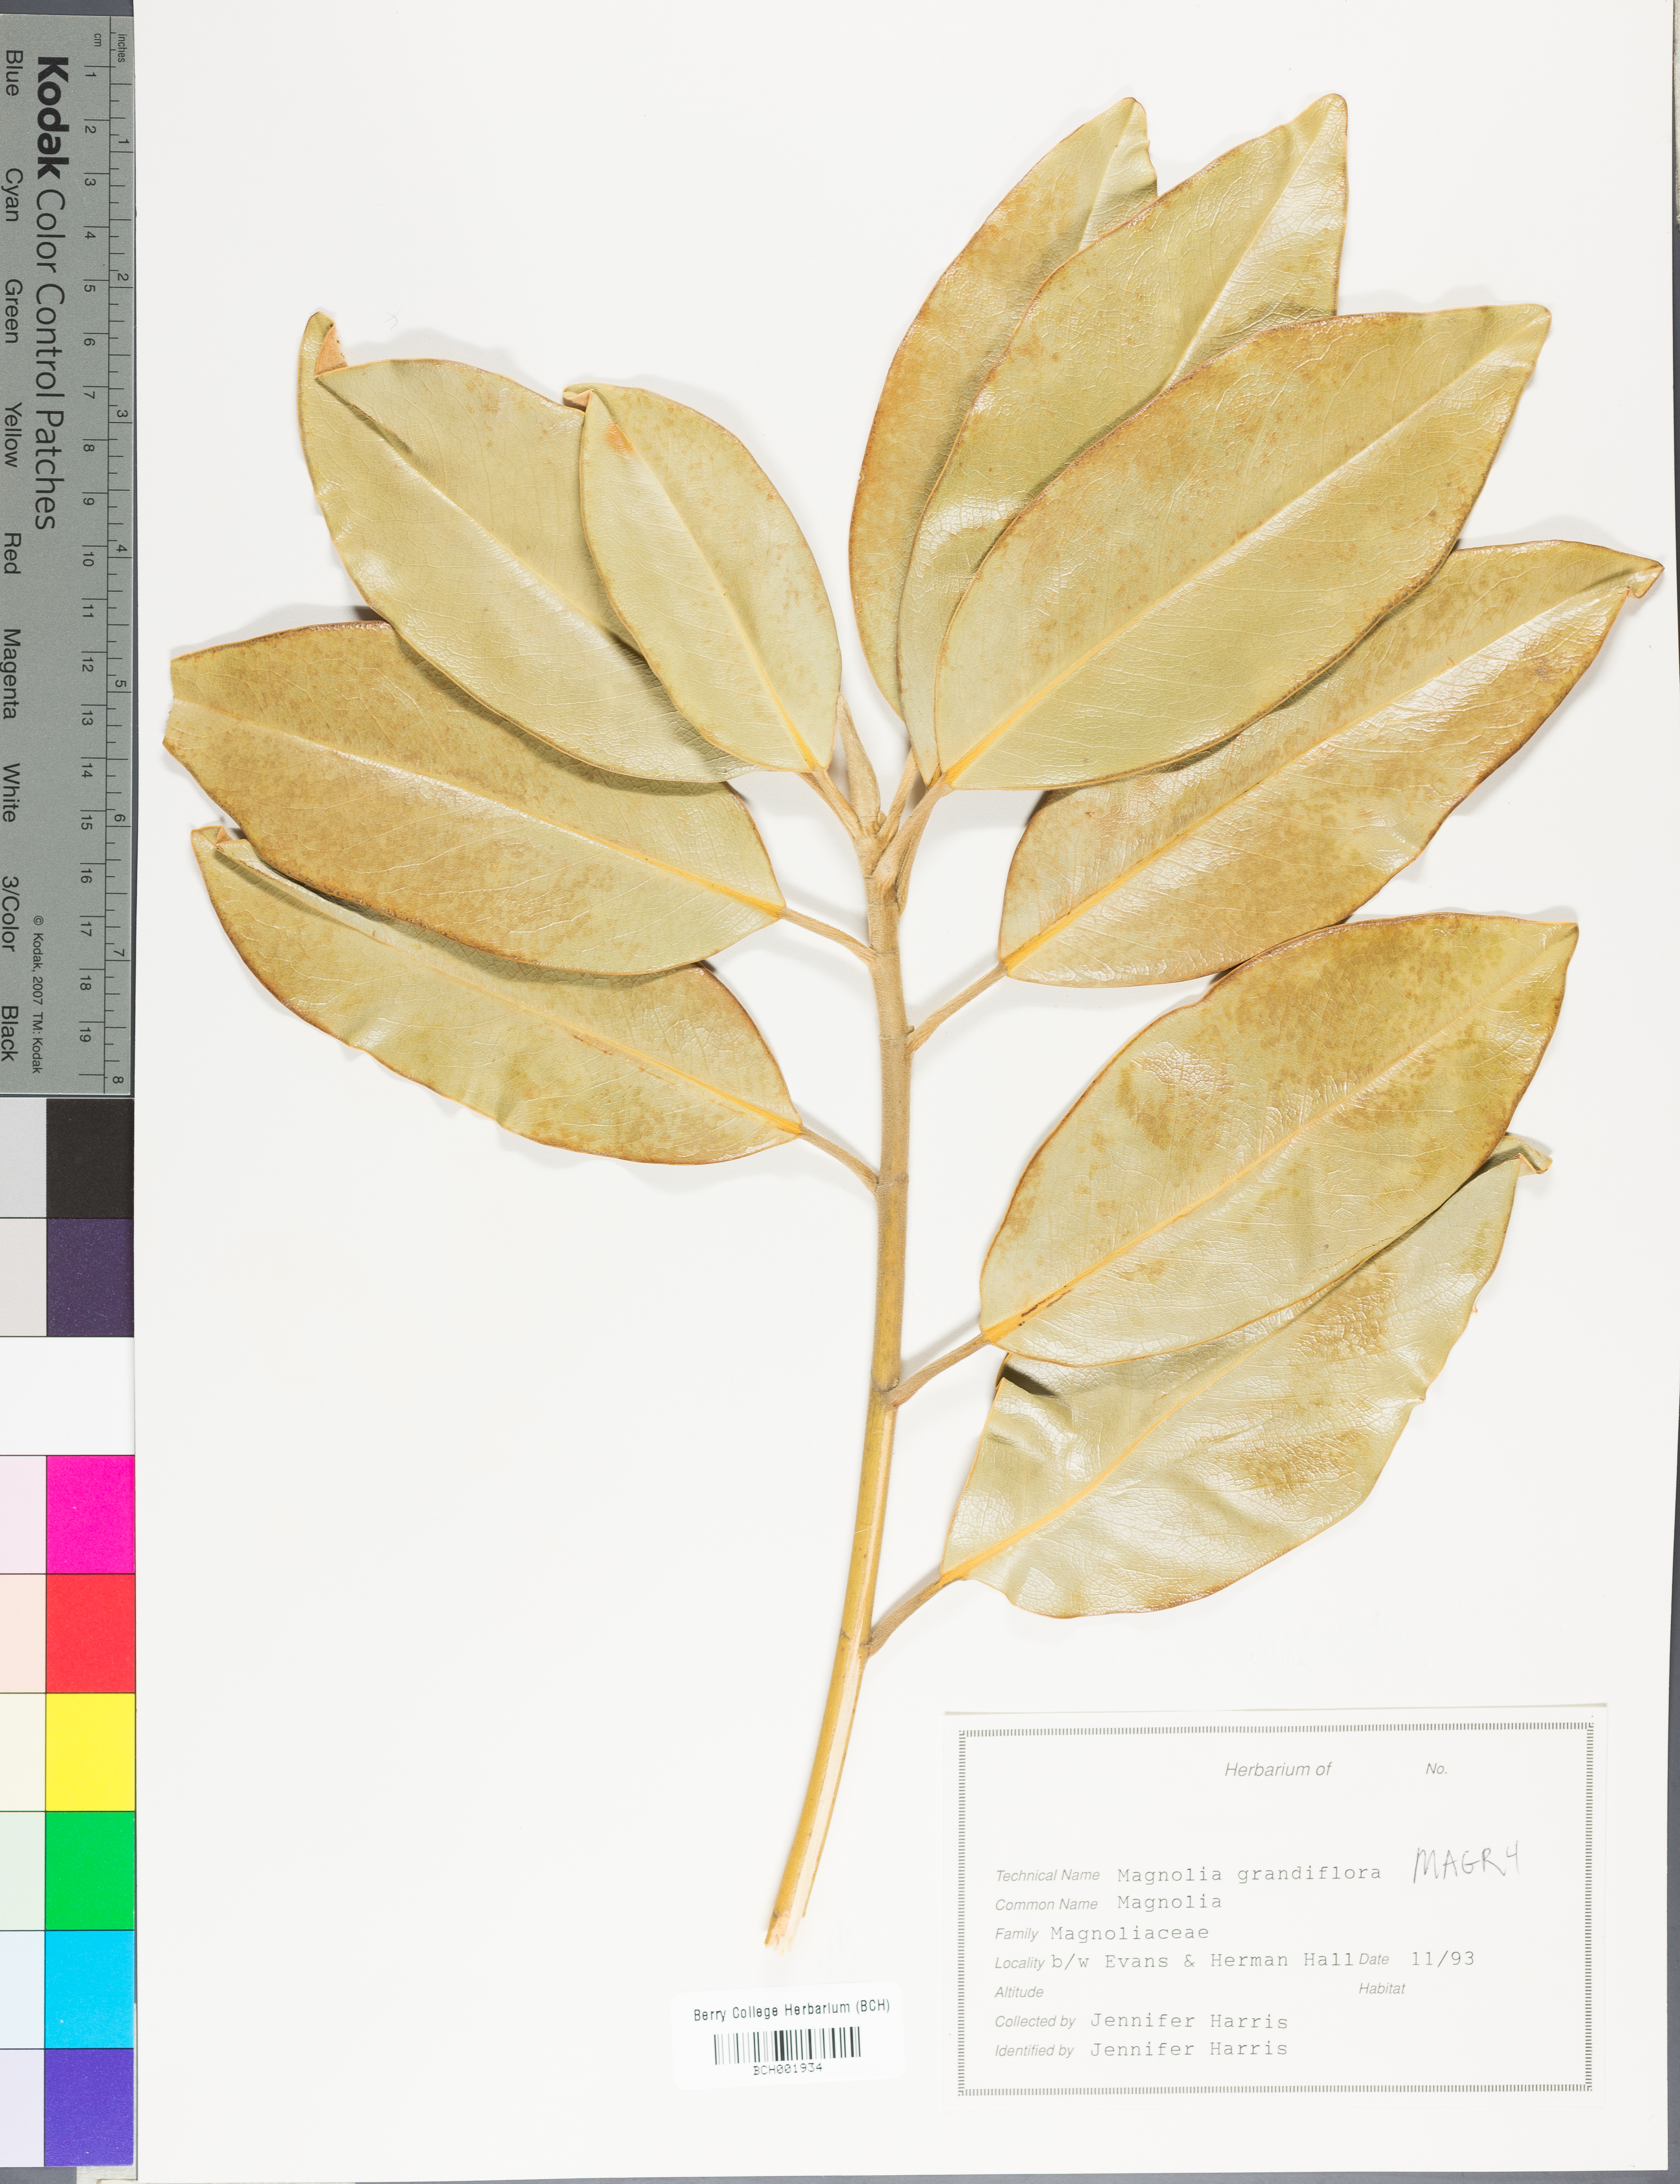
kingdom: Plantae
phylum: Tracheophyta
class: Magnoliopsida
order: Magnoliales
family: Magnoliaceae
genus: Magnolia
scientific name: Magnolia grandiflora
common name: Southern magnolia
